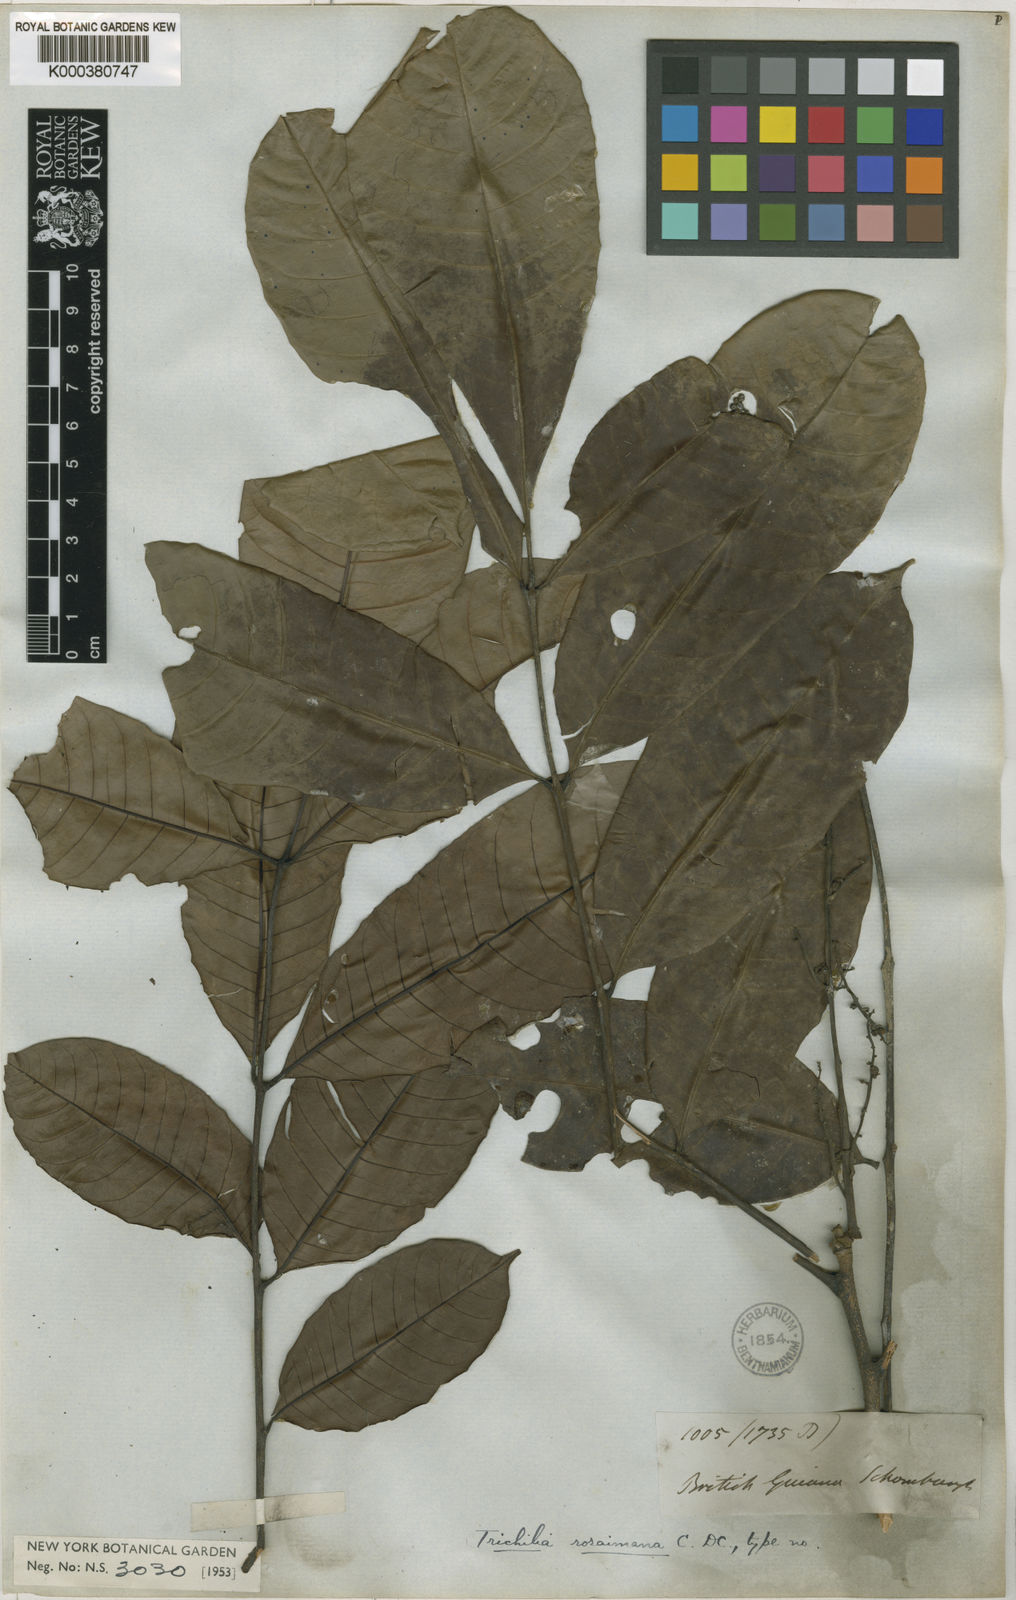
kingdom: Plantae
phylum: Tracheophyta
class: Magnoliopsida
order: Sapindales
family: Meliaceae
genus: Trichilia
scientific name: Trichilia micrantha
